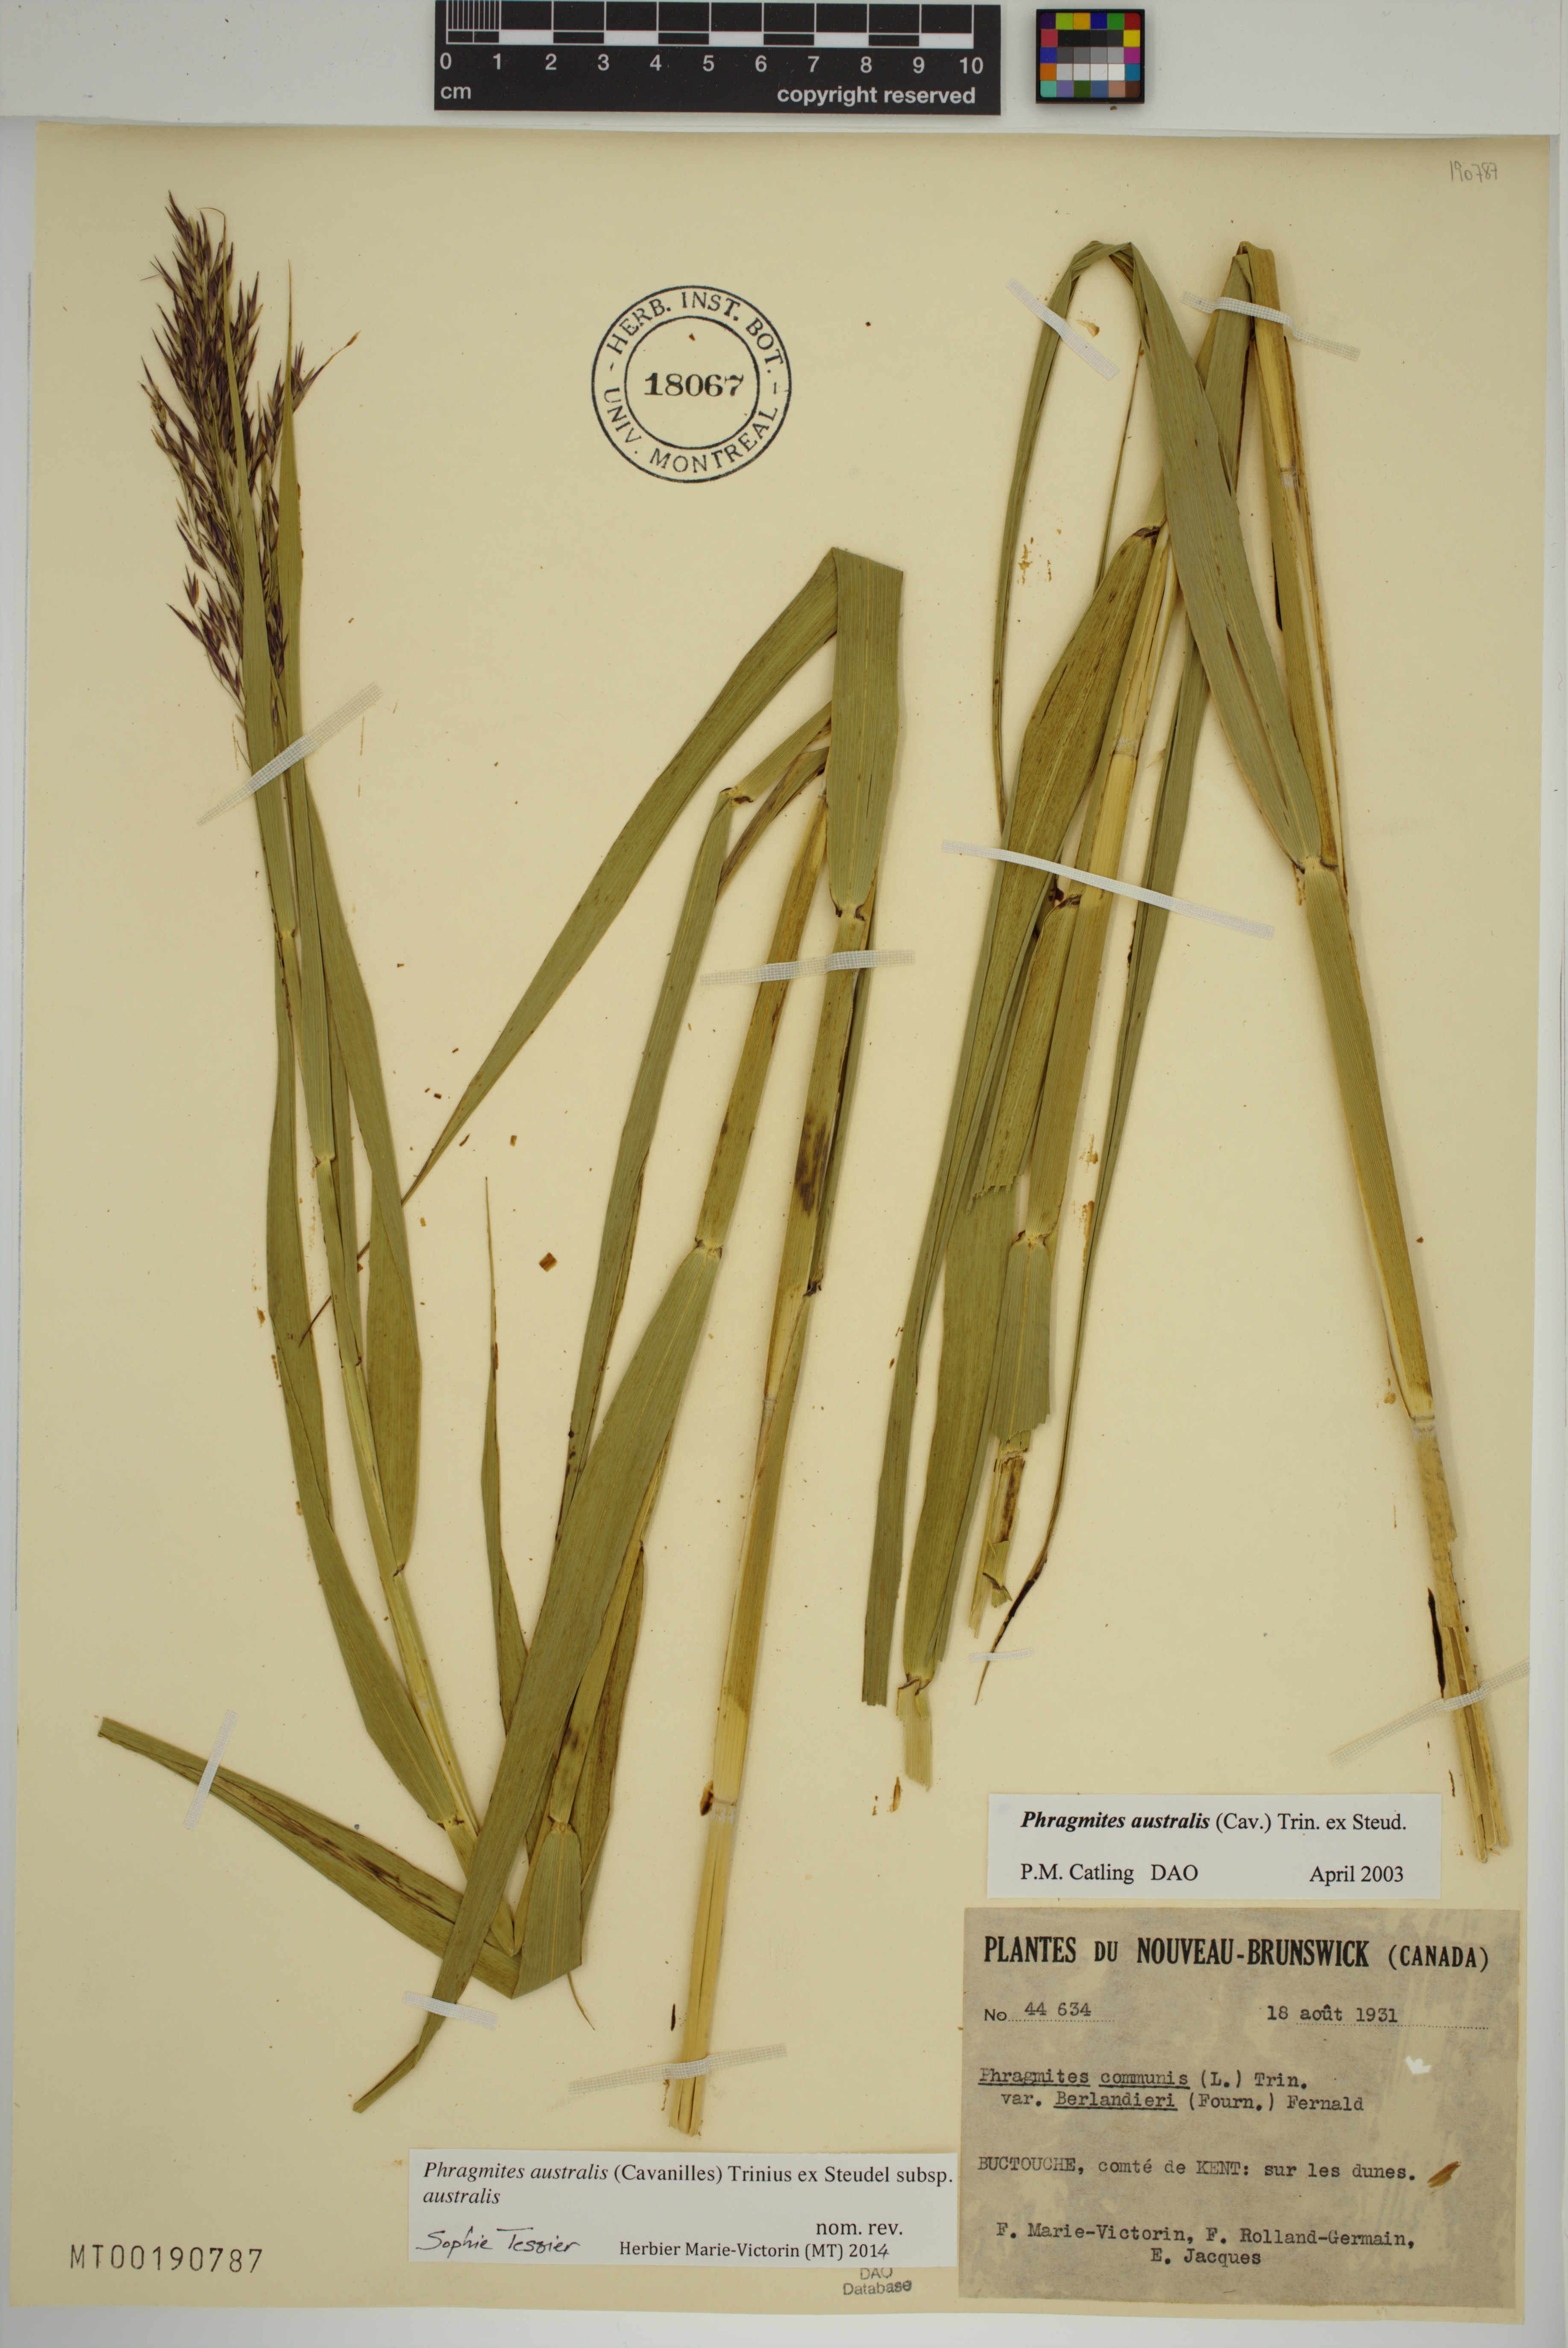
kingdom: Plantae
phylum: Tracheophyta
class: Liliopsida
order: Poales
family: Poaceae
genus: Phragmites
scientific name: Phragmites australis
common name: Common reed
